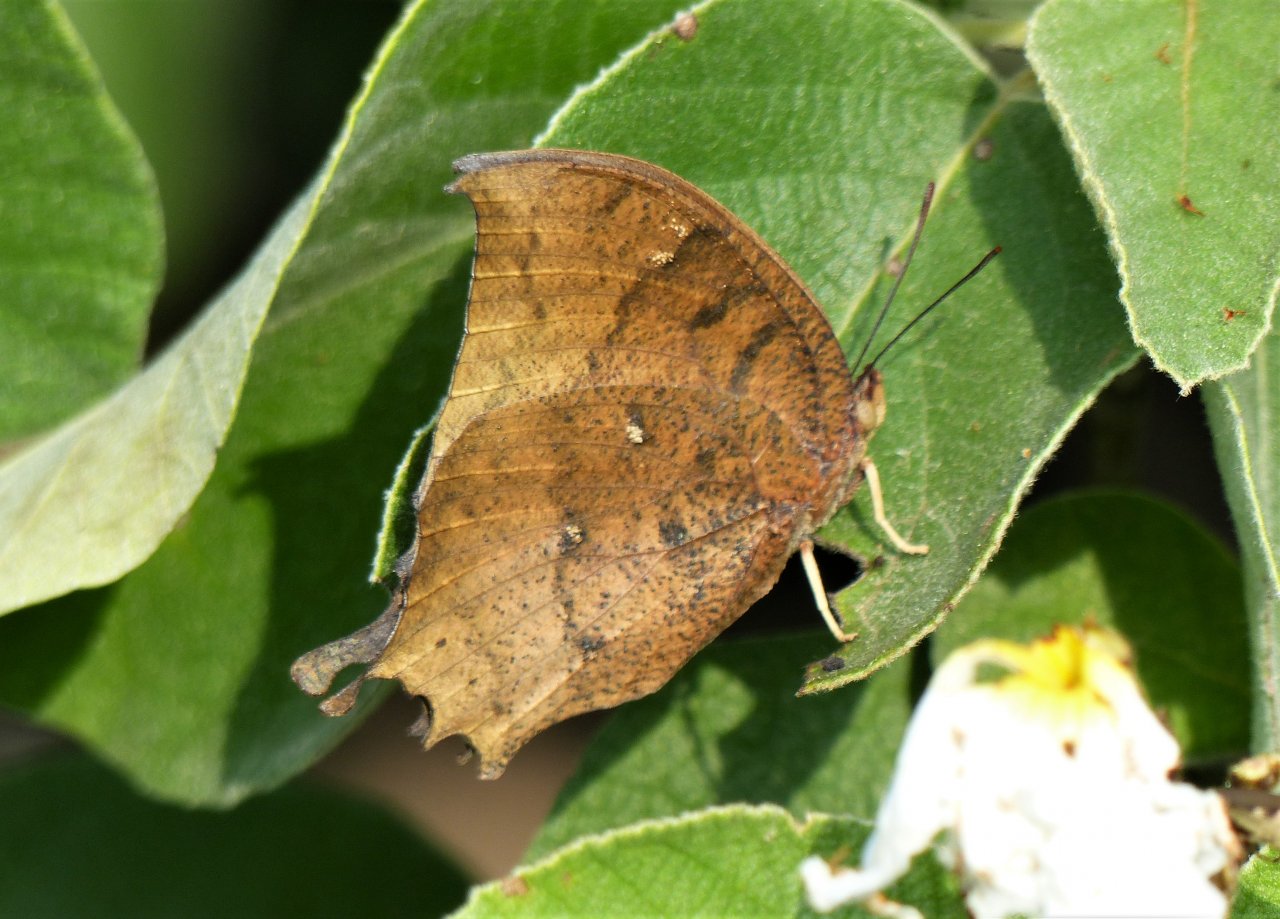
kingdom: Animalia
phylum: Arthropoda
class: Insecta
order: Lepidoptera
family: Nymphalidae
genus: Anaea
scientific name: Anaea aidea
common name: Tropical Leafwing
